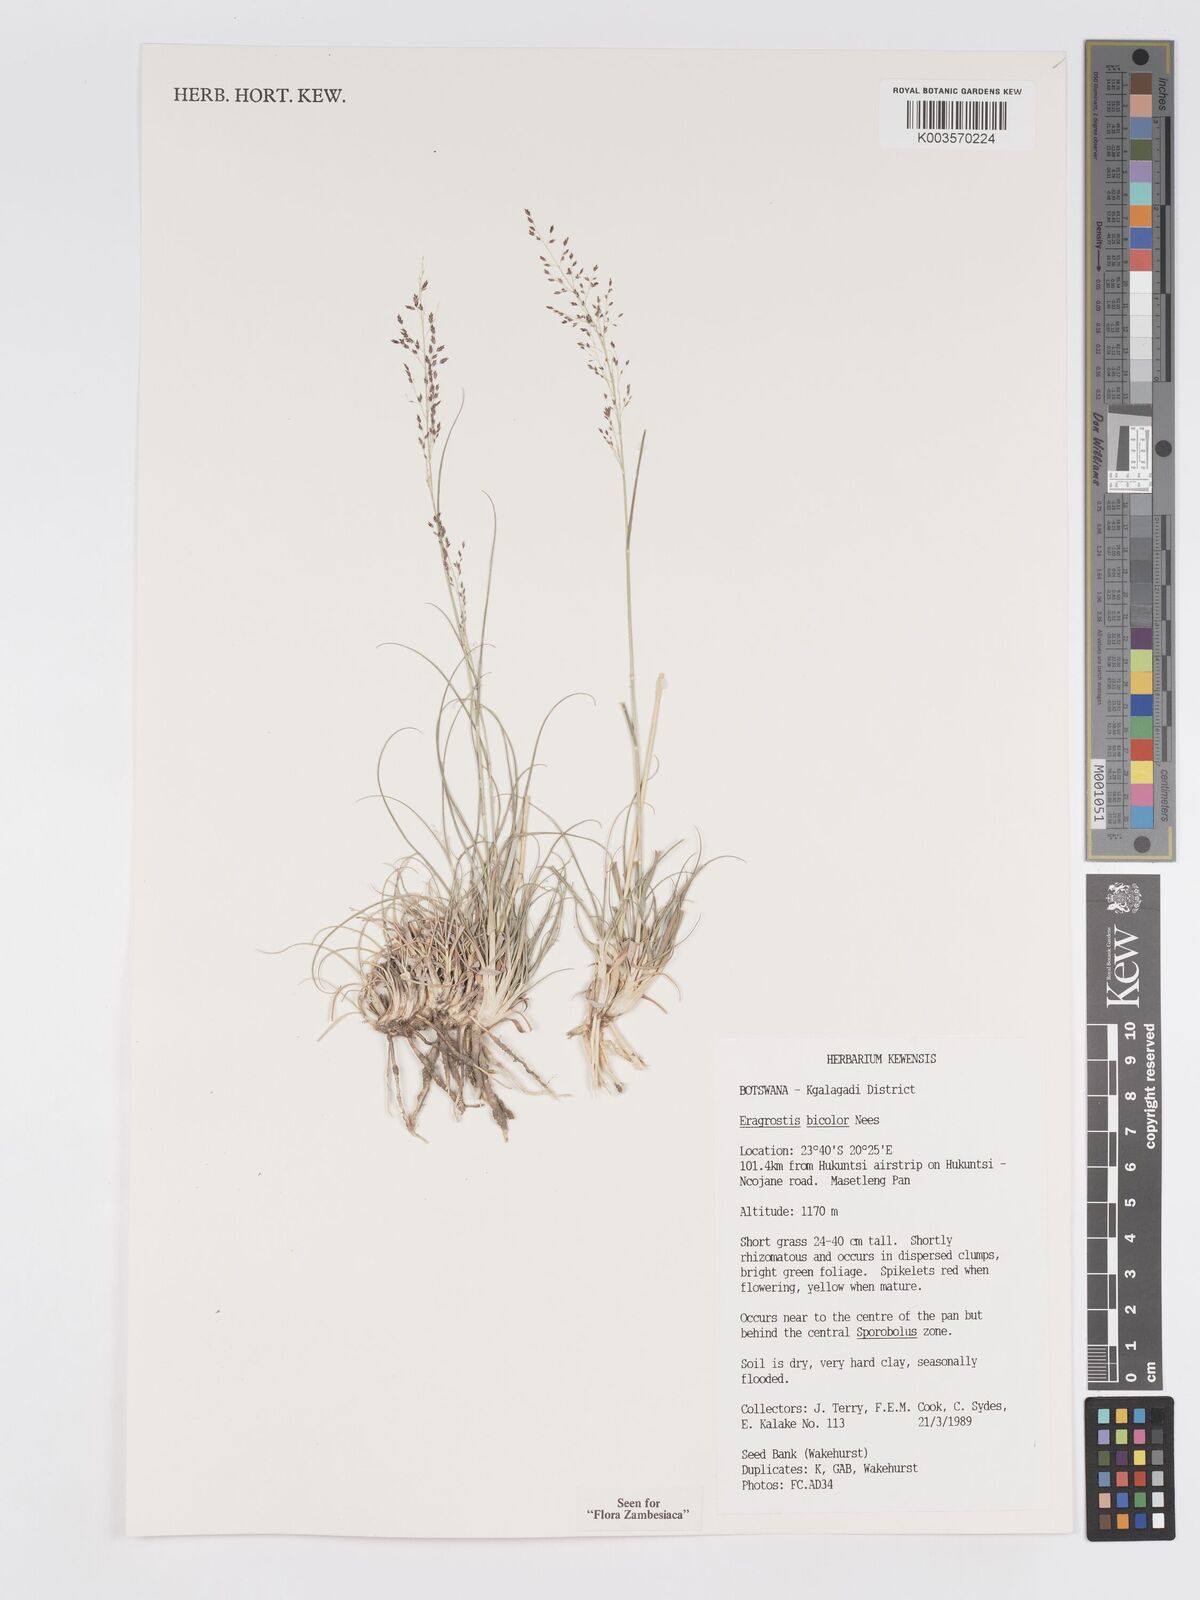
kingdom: Plantae
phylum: Tracheophyta
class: Liliopsida
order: Poales
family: Poaceae
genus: Eragrostis
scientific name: Eragrostis bicolor
